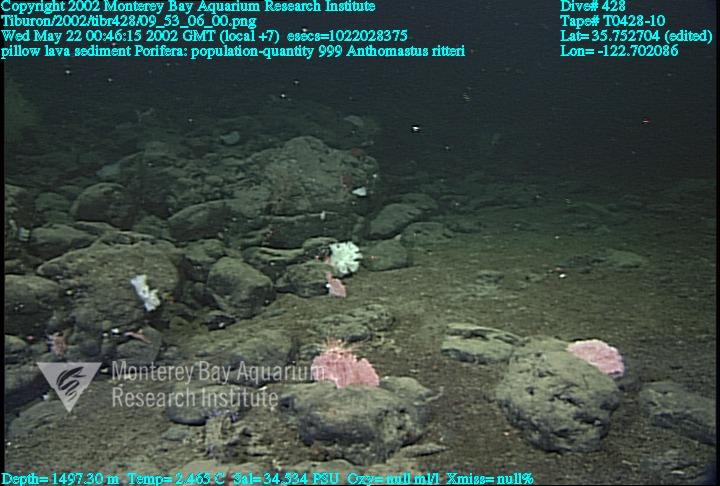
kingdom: Animalia
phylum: Porifera
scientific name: Porifera
